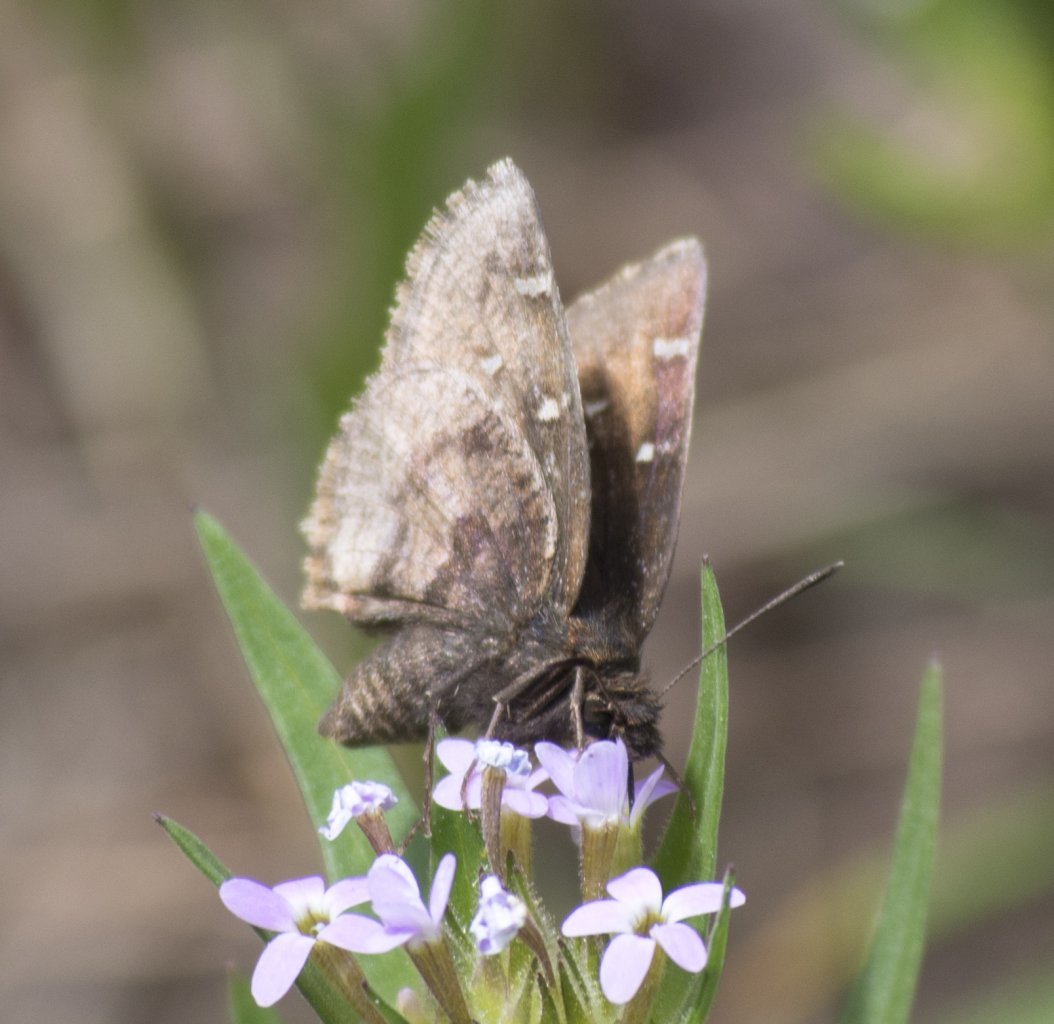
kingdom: Animalia
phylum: Arthropoda
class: Insecta
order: Lepidoptera
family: Hesperiidae
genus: Thorybes
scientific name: Thorybes mexicana
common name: Mexican Cloudywing
